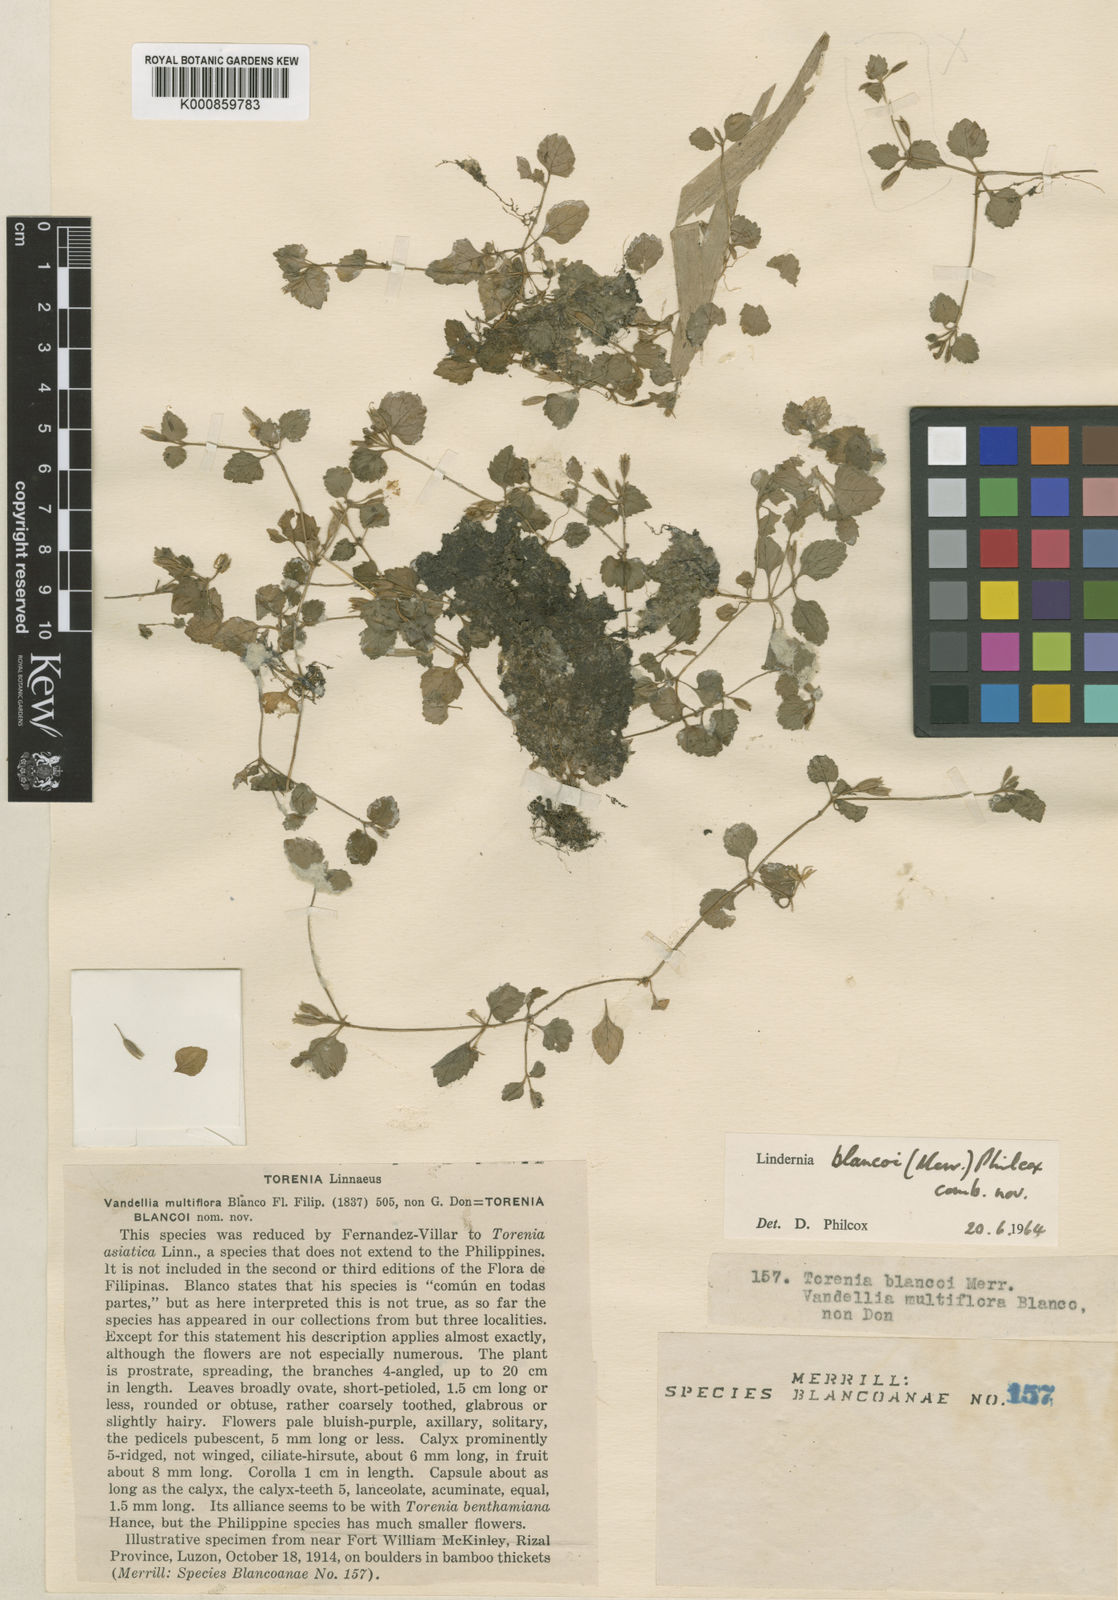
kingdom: Plantae
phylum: Tracheophyta
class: Magnoliopsida
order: Lamiales
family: Linderniaceae
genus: Torenia
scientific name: Torenia blancoi
